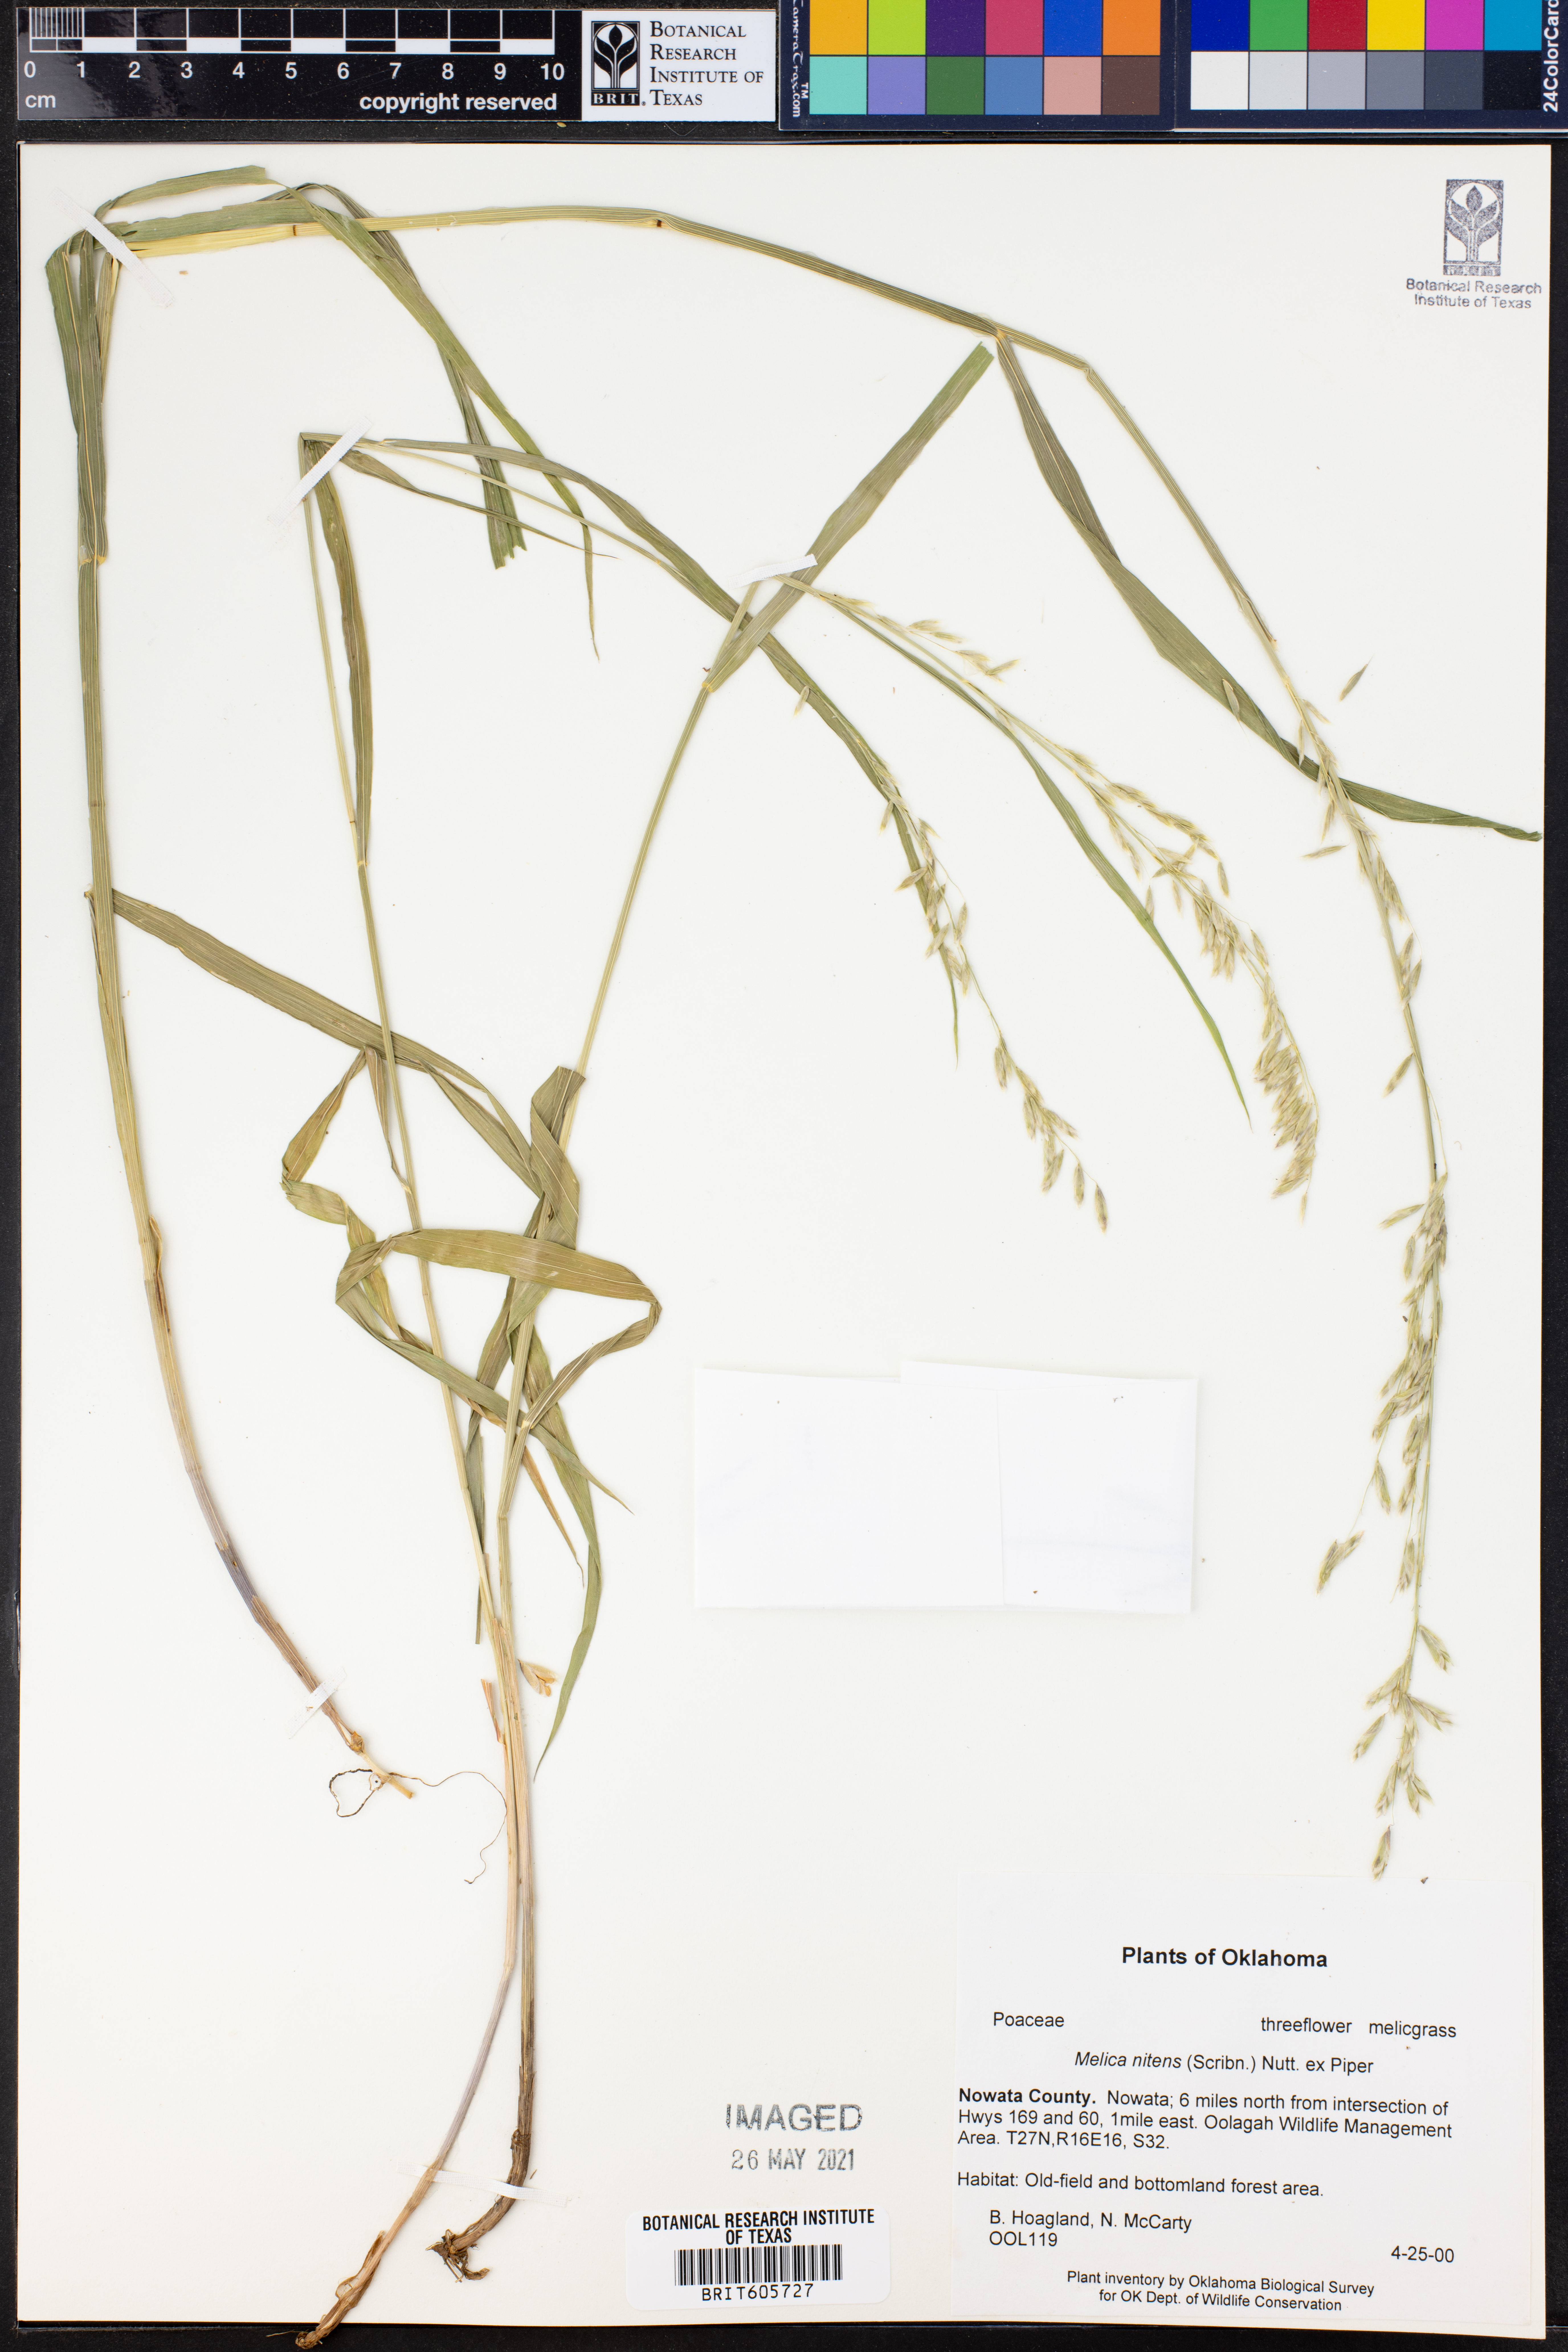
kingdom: Plantae
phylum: Tracheophyta
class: Liliopsida
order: Poales
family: Poaceae
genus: Melica
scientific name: Melica nitens
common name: Three-flower melic
